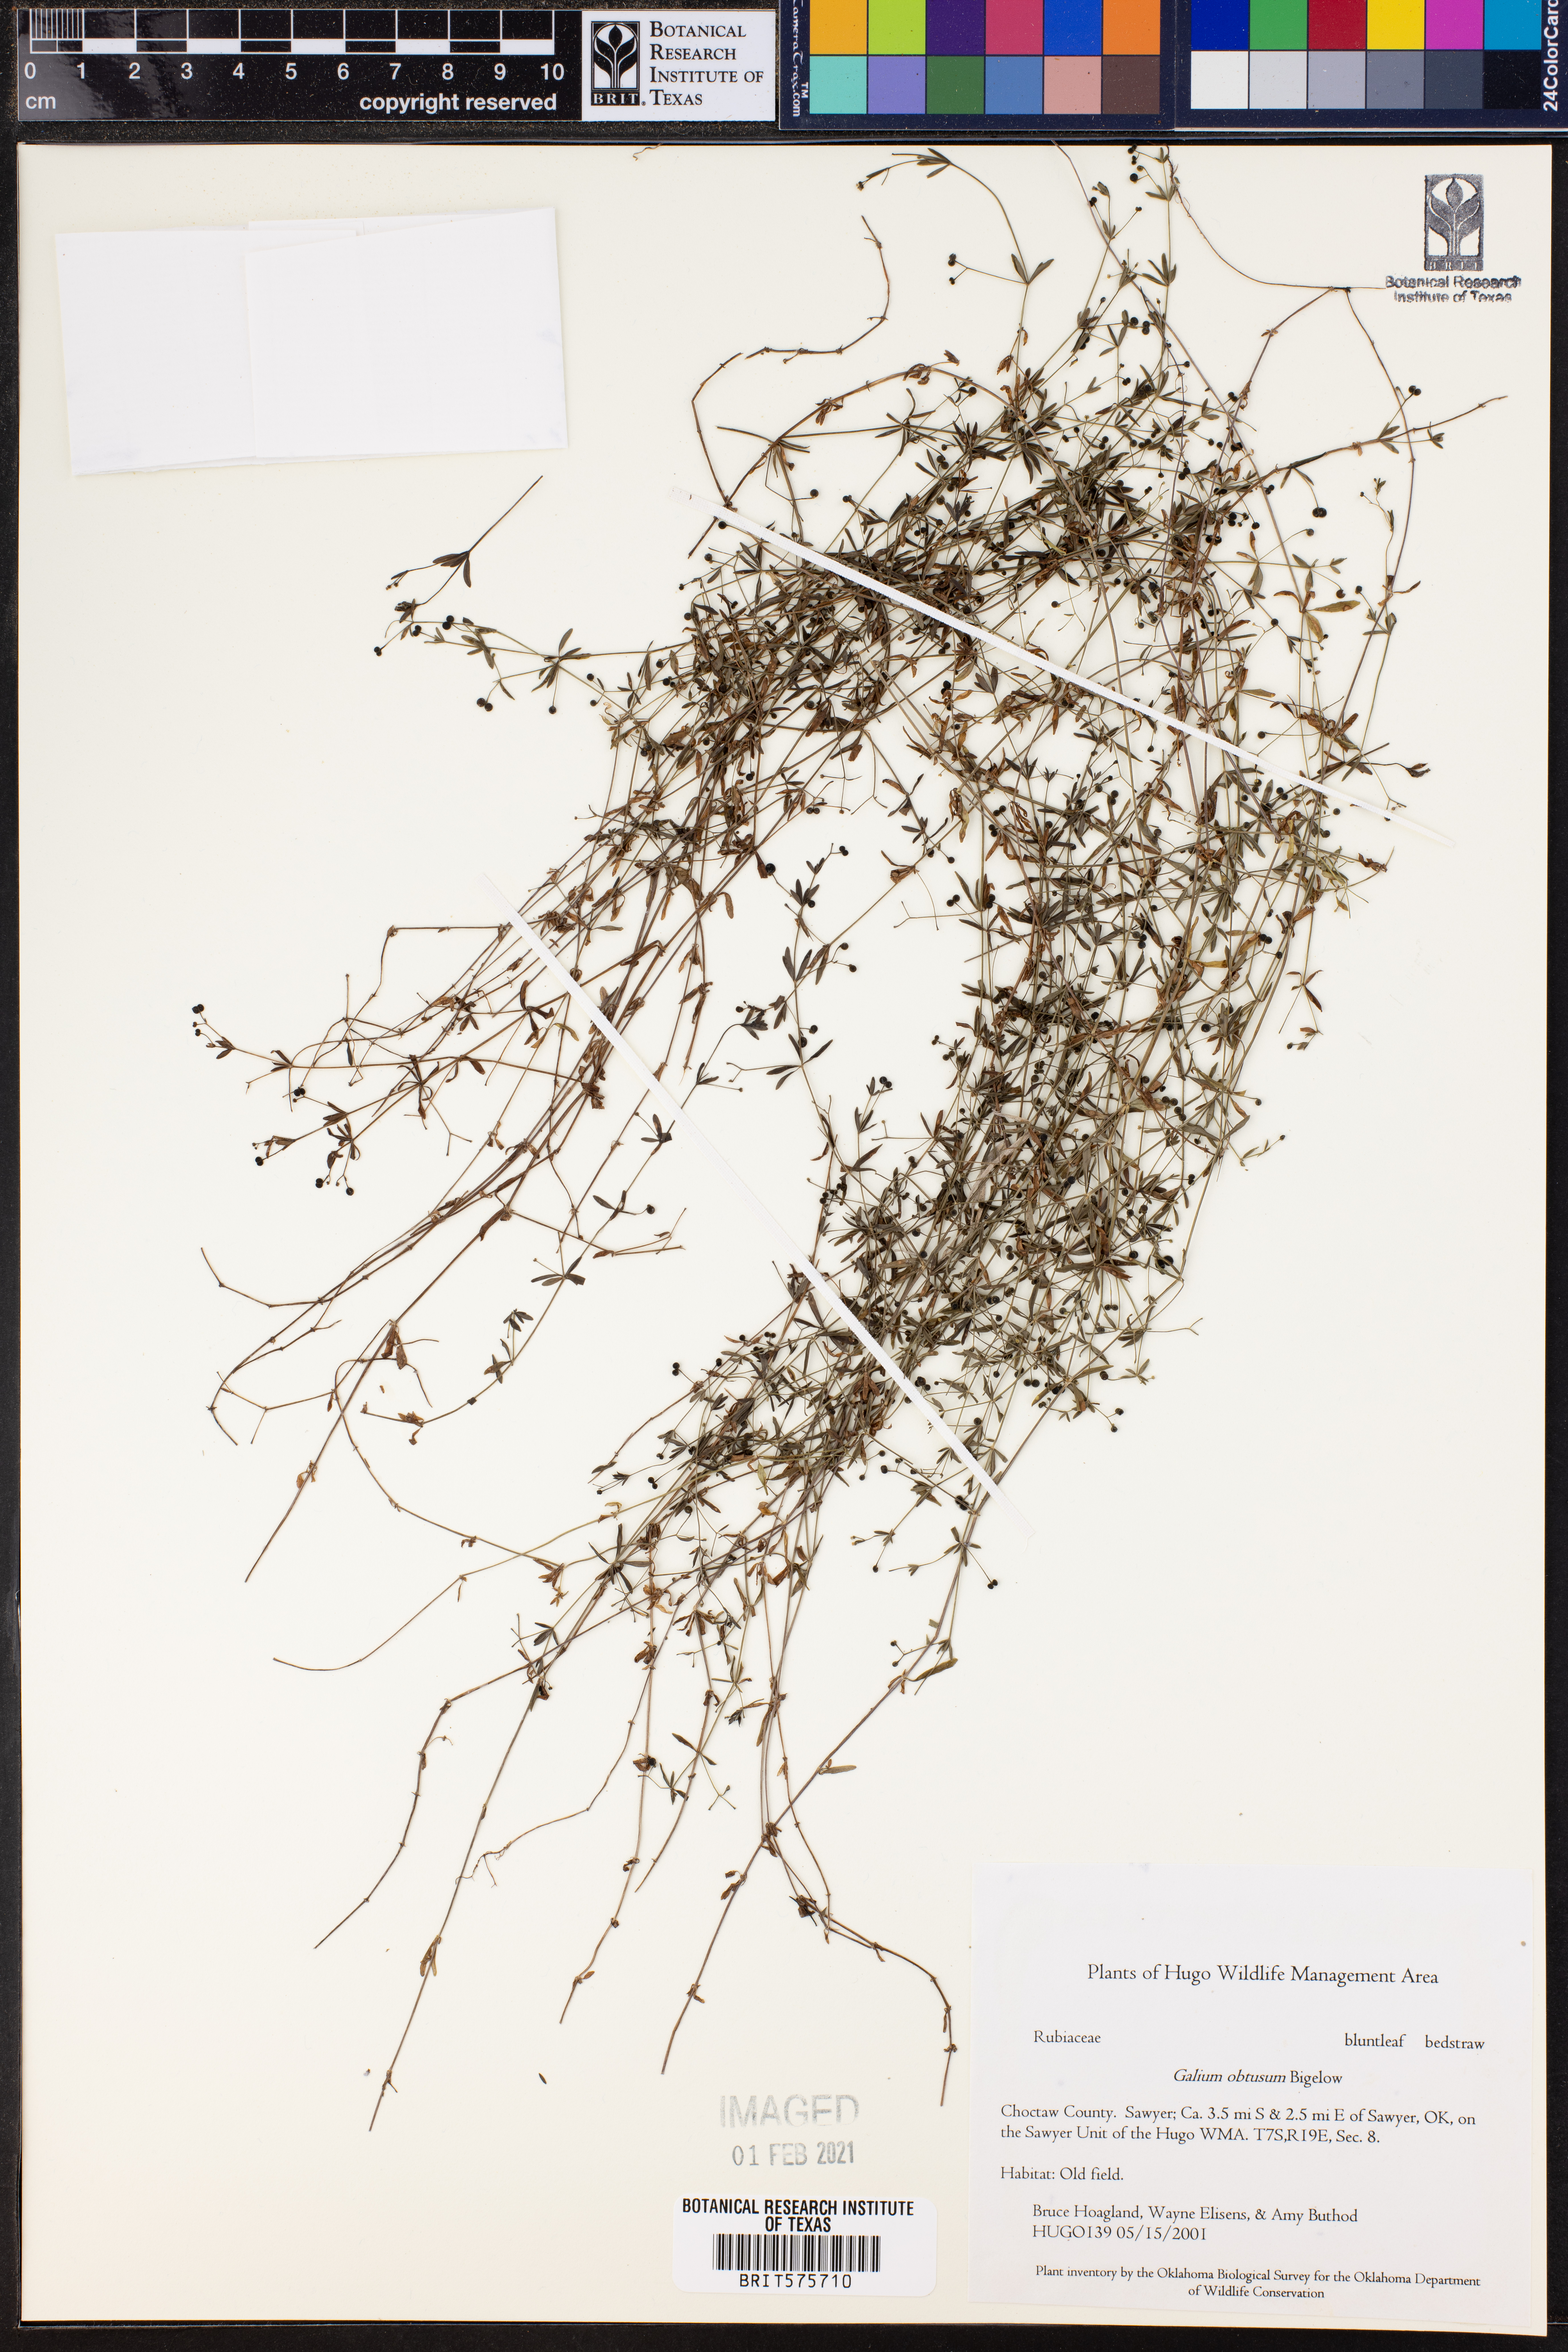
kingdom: Plantae
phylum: Tracheophyta
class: Magnoliopsida
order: Gentianales
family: Rubiaceae
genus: Galium
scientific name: Galium obtusum
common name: Blunt-leaved bedstraw
